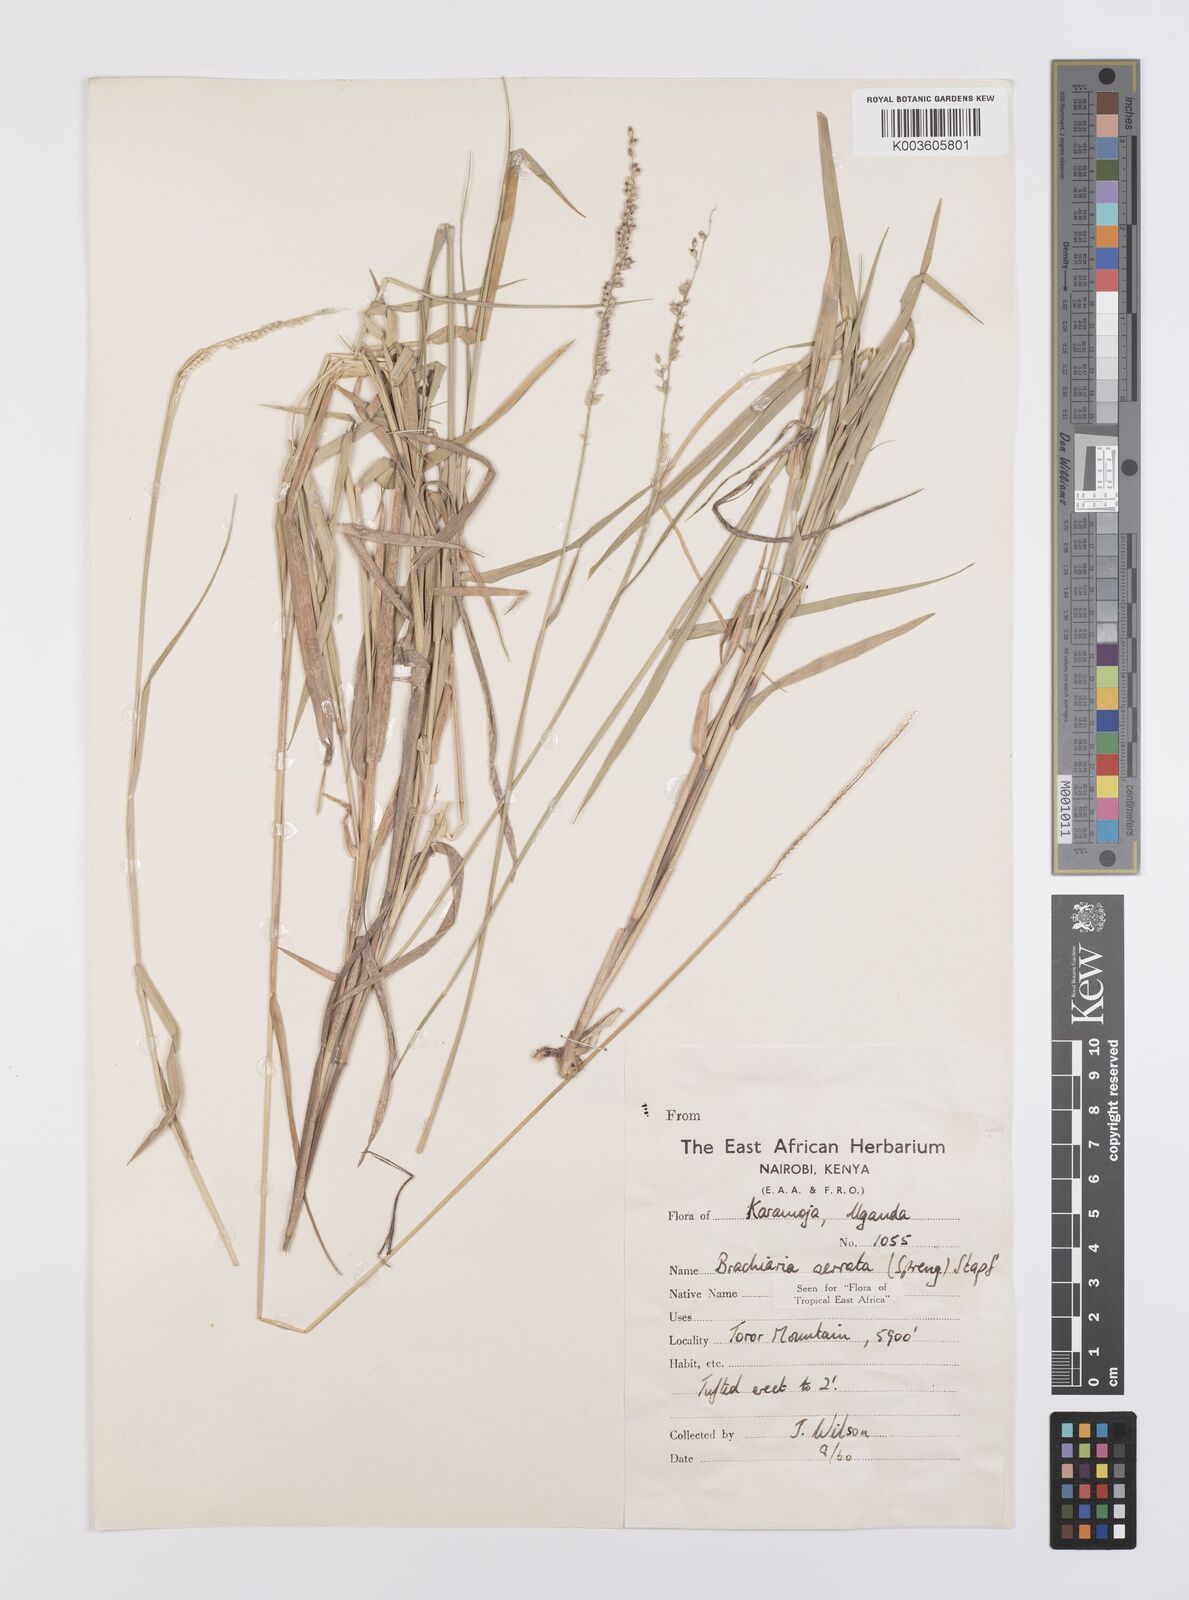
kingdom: Plantae
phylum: Tracheophyta
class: Liliopsida
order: Poales
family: Poaceae
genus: Urochloa
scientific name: Urochloa serrata
